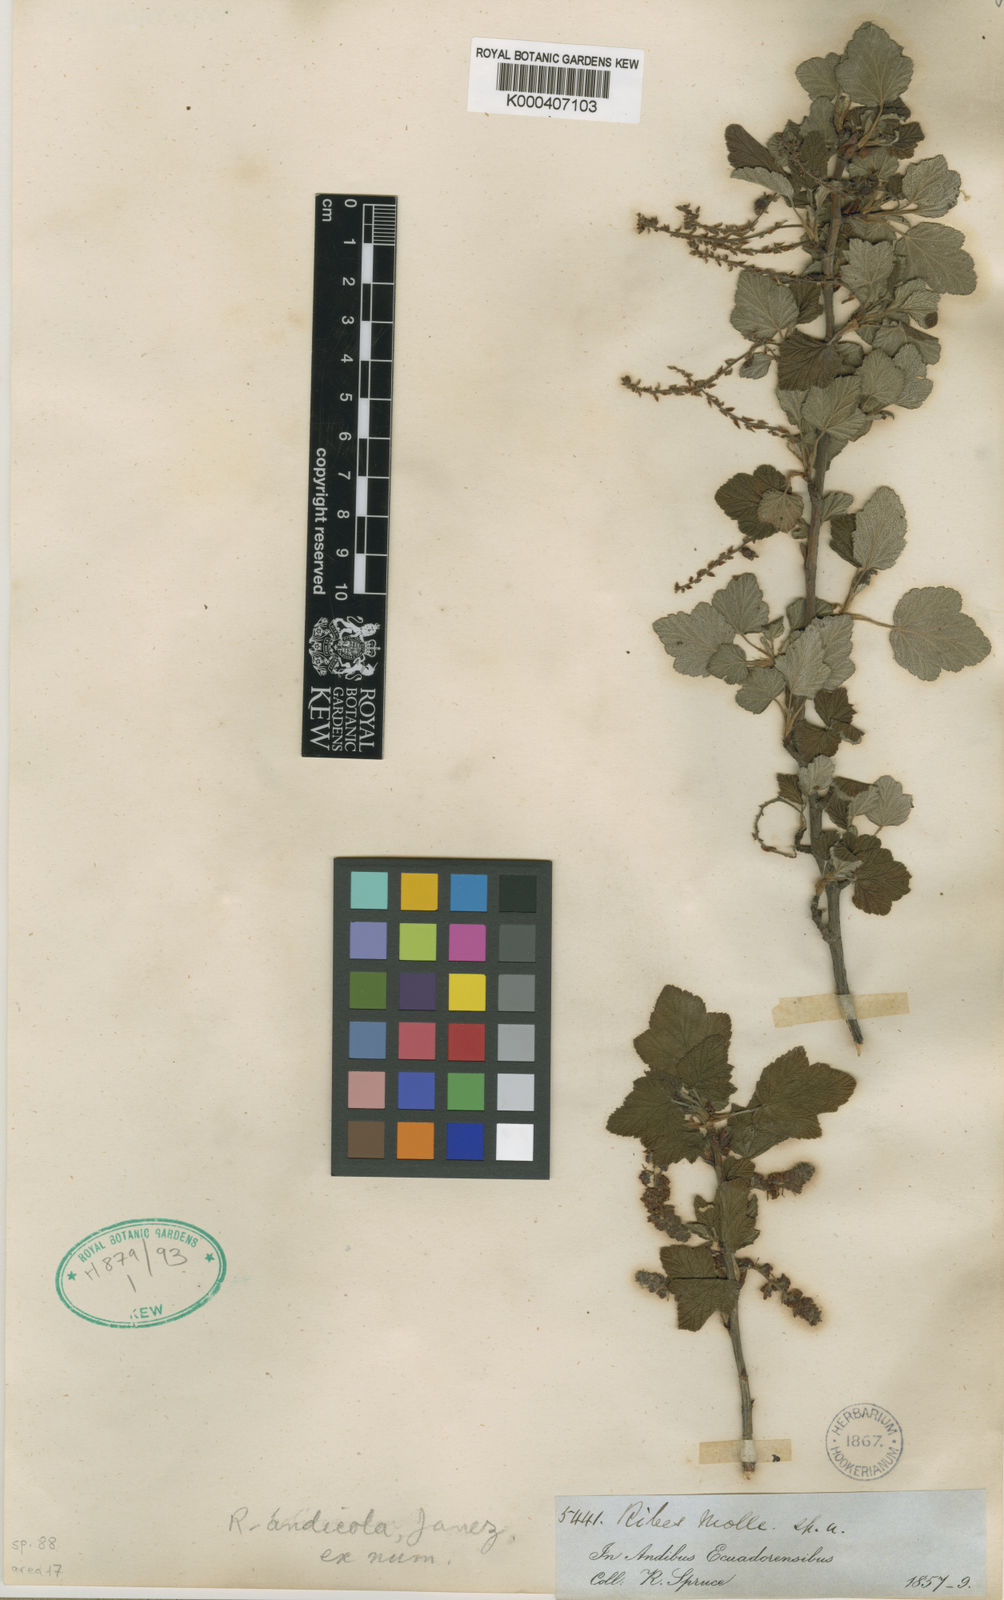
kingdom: Plantae
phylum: Tracheophyta
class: Magnoliopsida
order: Saxifragales
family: Grossulariaceae
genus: Ribes
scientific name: Ribes andicola
